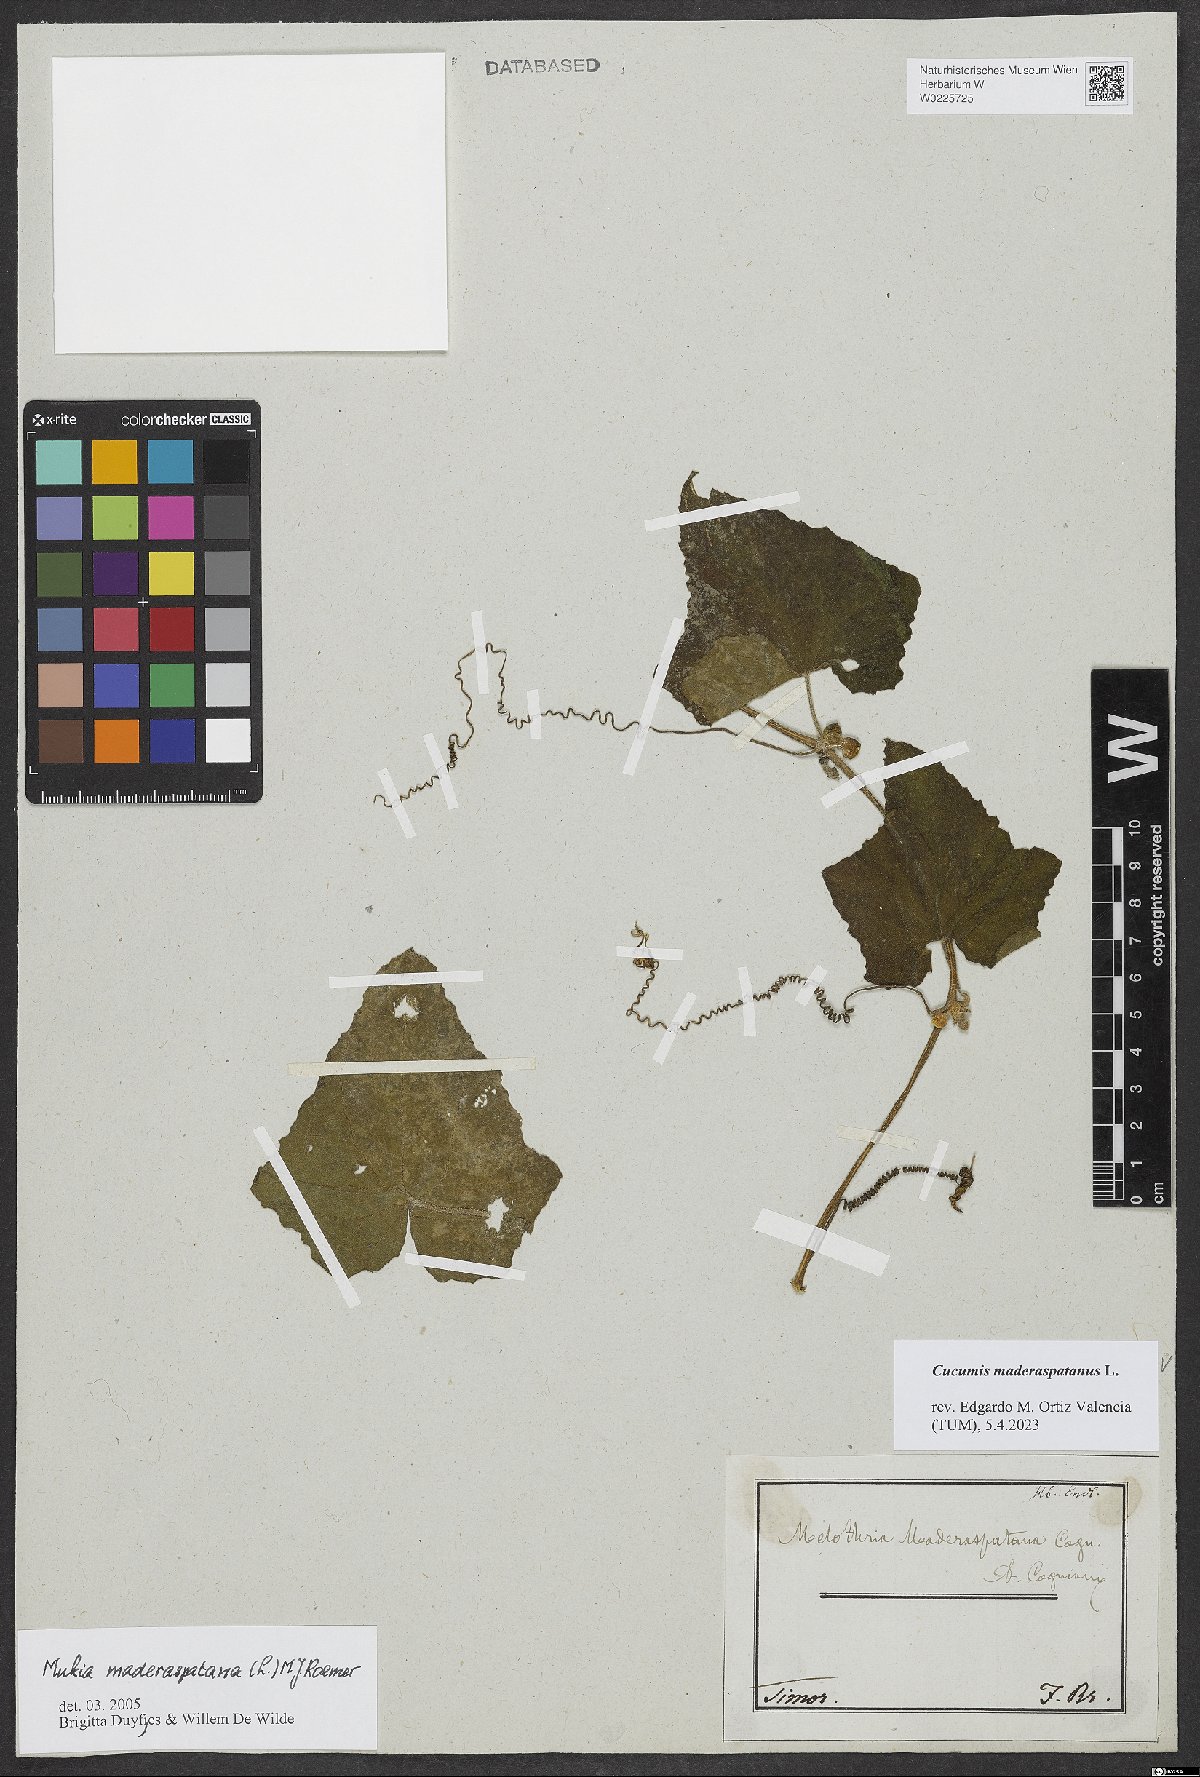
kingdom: Plantae
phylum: Tracheophyta
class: Magnoliopsida
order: Cucurbitales
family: Cucurbitaceae
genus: Cucumis
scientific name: Cucumis maderaspatanus
